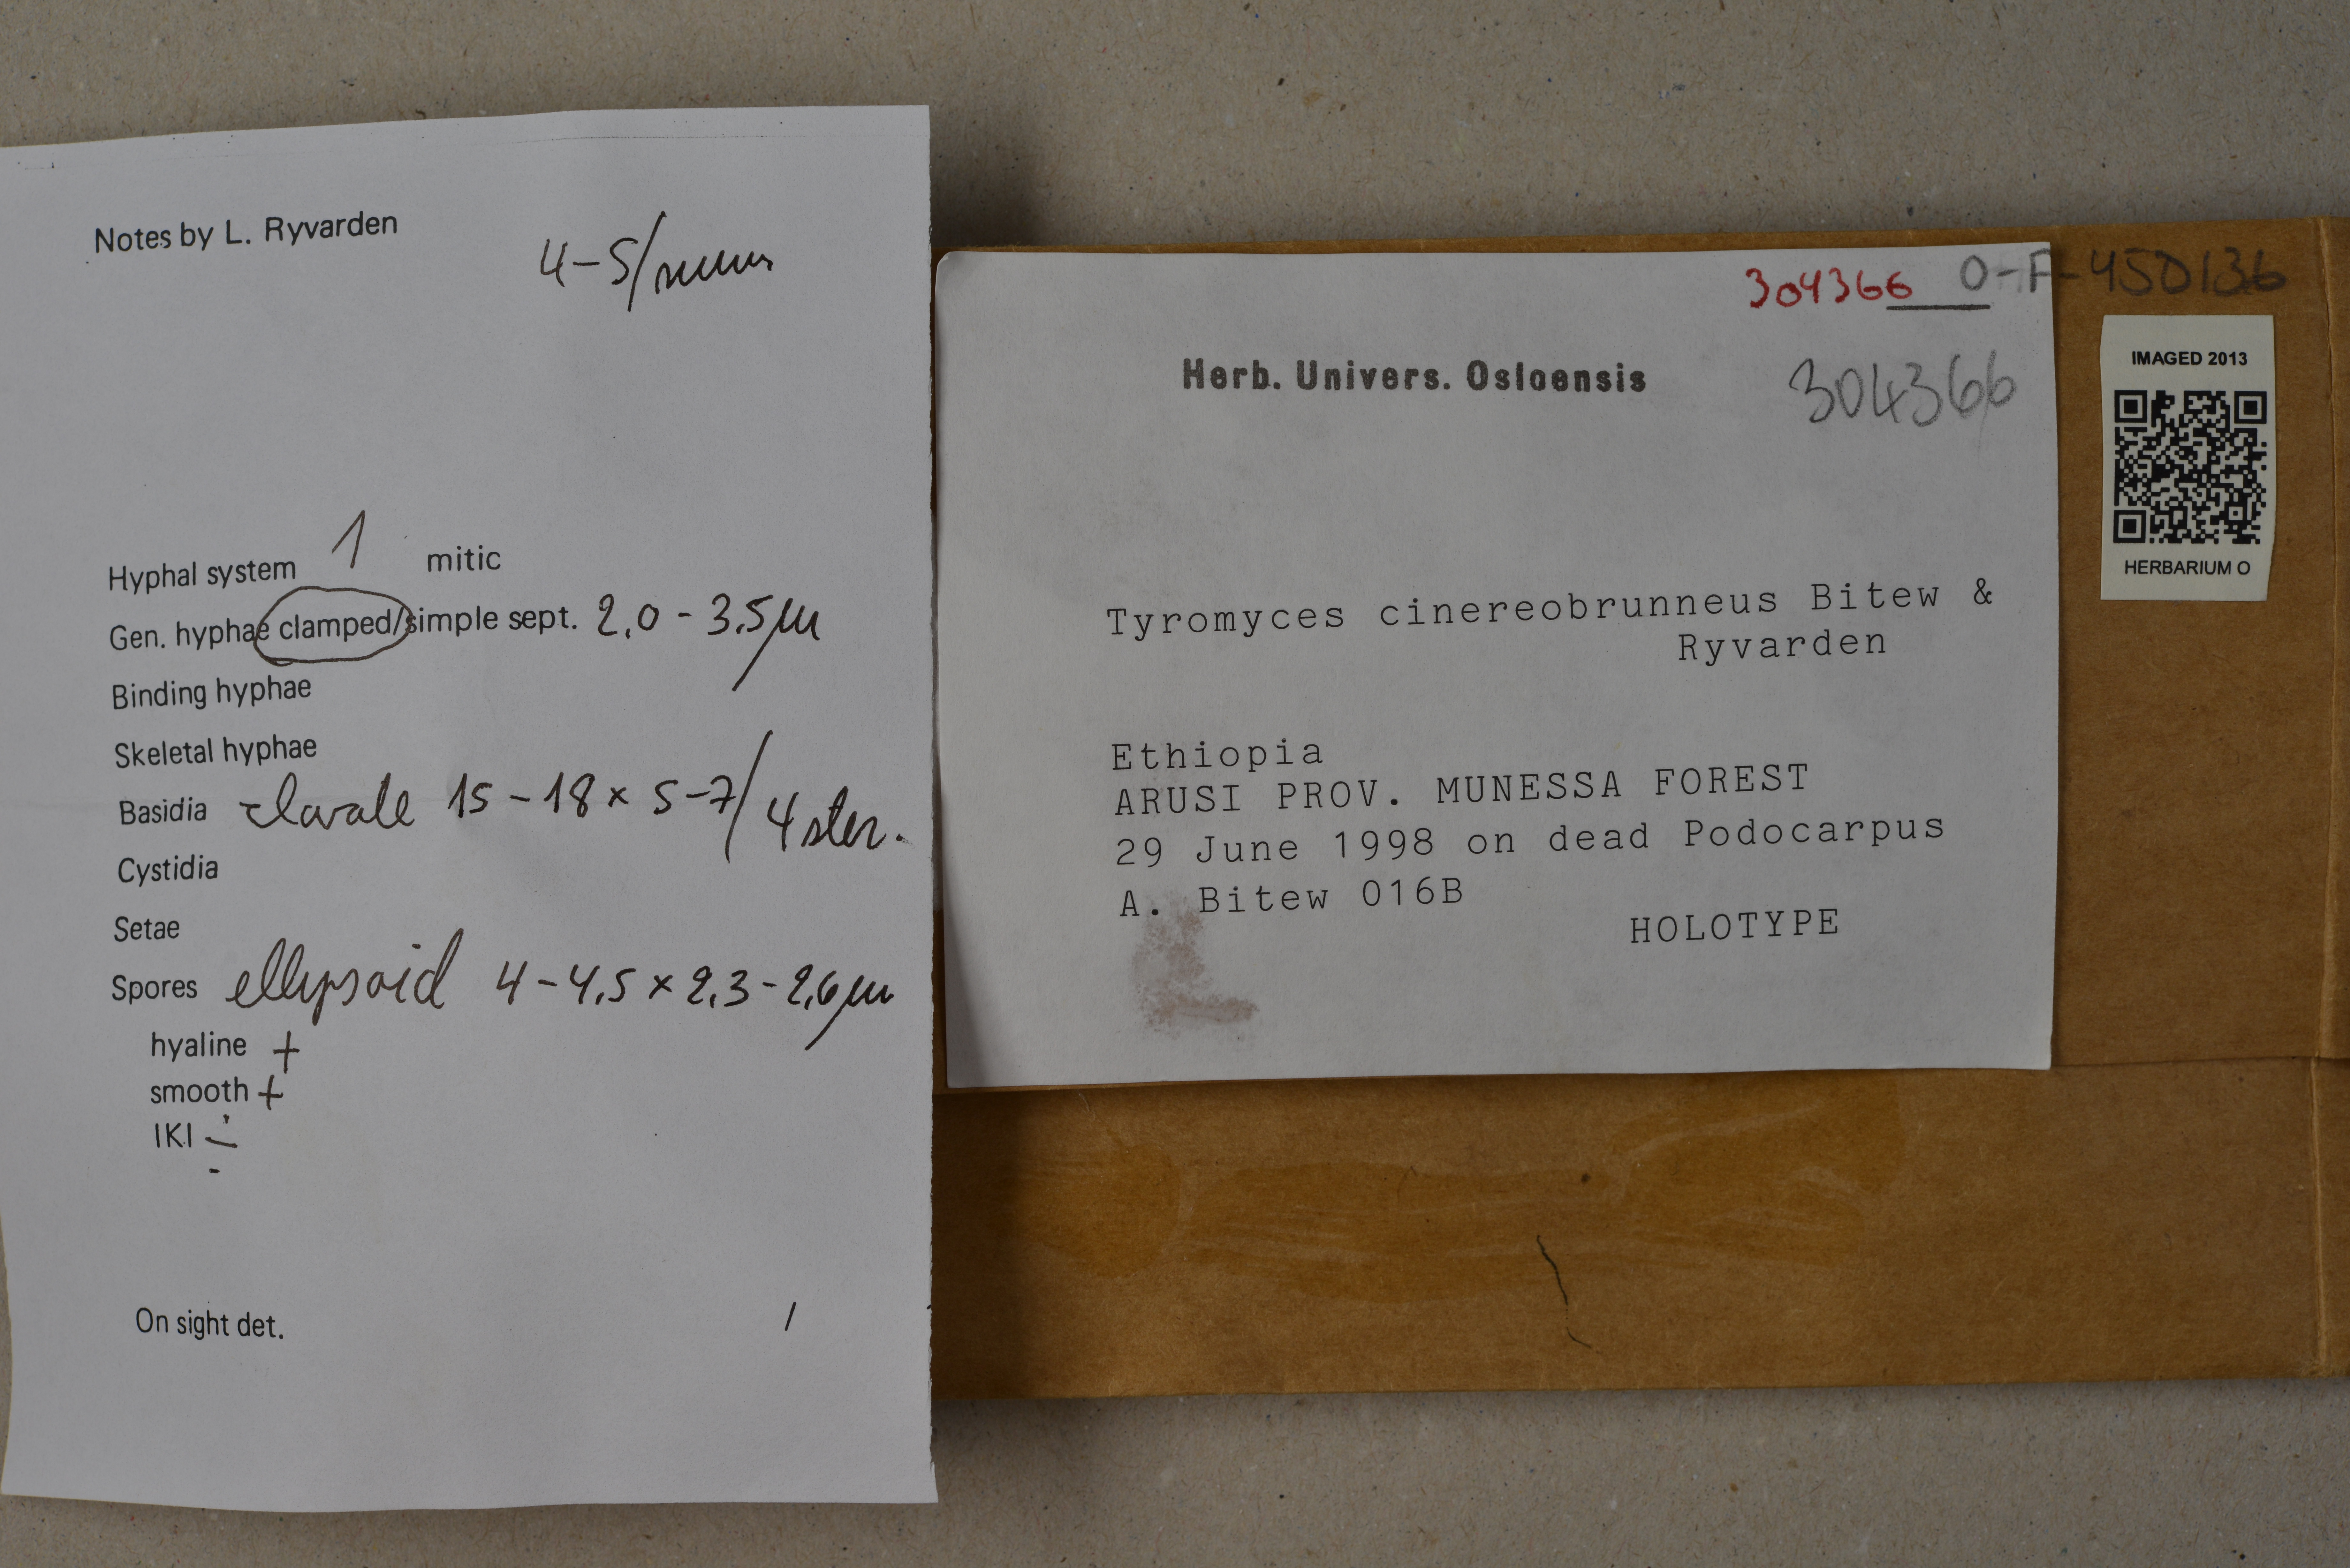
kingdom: Fungi
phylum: Basidiomycota
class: Agaricomycetes
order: Polyporales
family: Incrustoporiaceae
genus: Tyromyces
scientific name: Tyromyces cinereobrunneus
